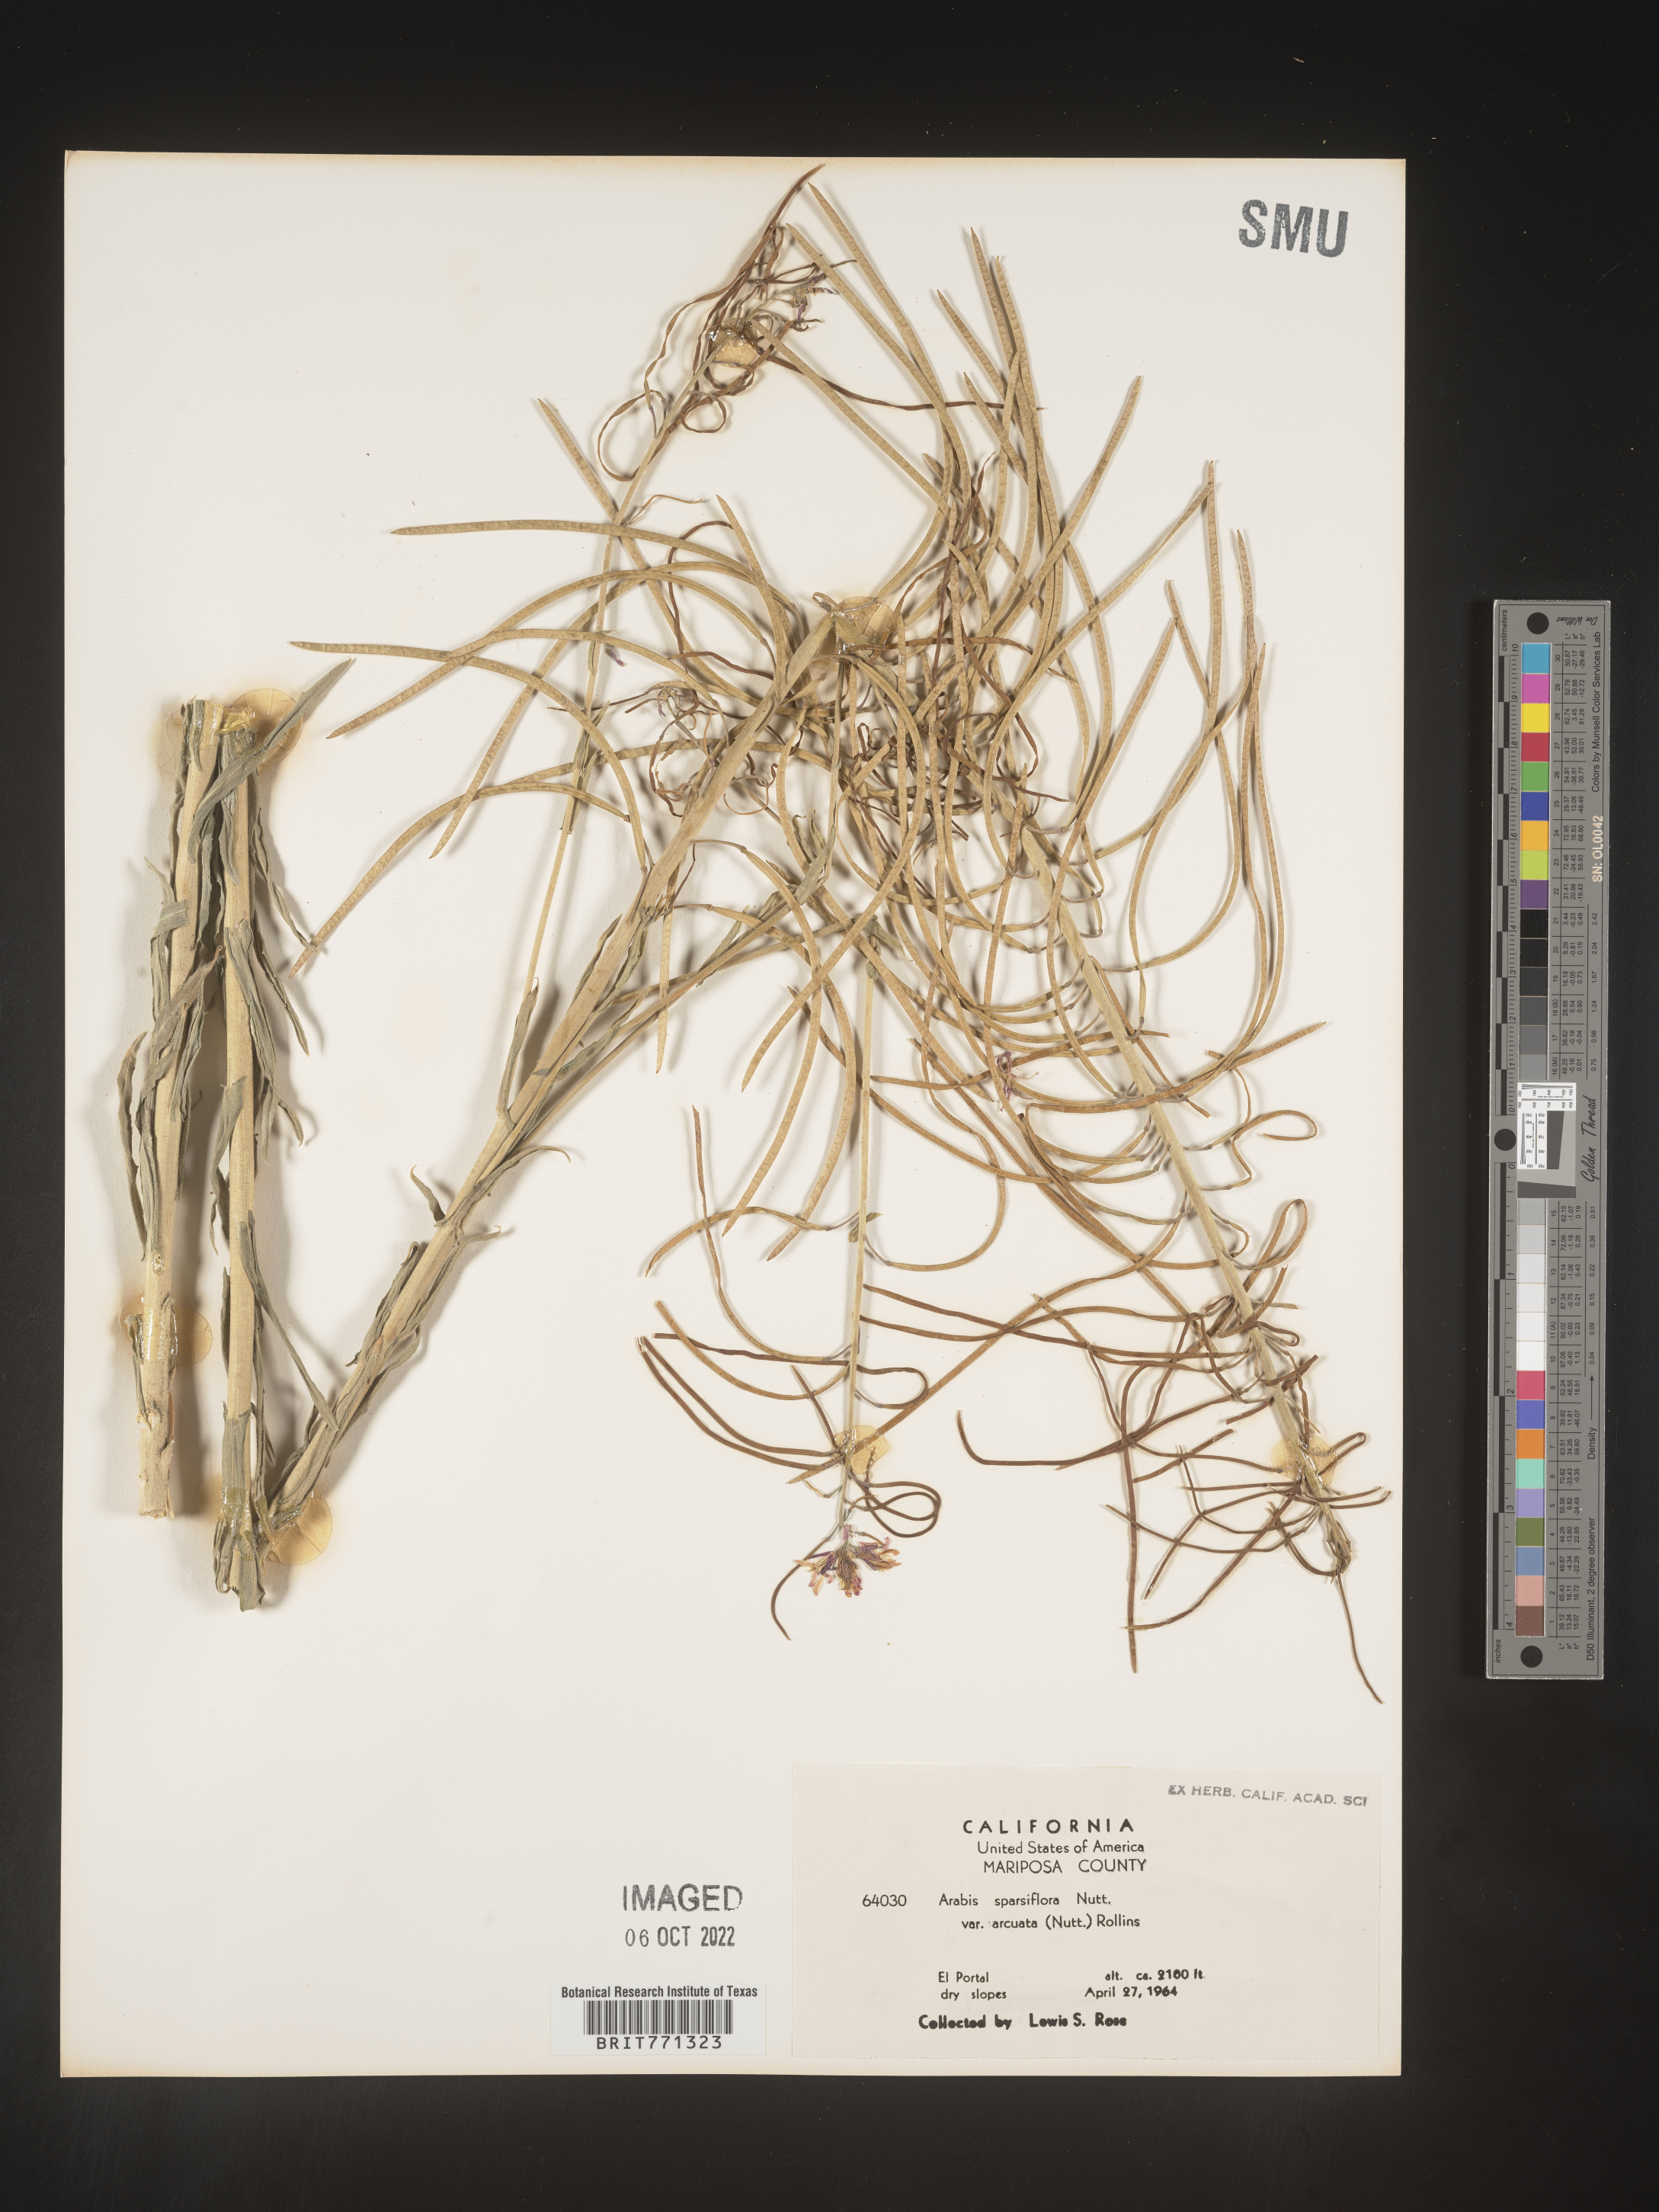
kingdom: Plantae
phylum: Tracheophyta
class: Magnoliopsida
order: Brassicales
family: Brassicaceae
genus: Arabis
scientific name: Arabis
